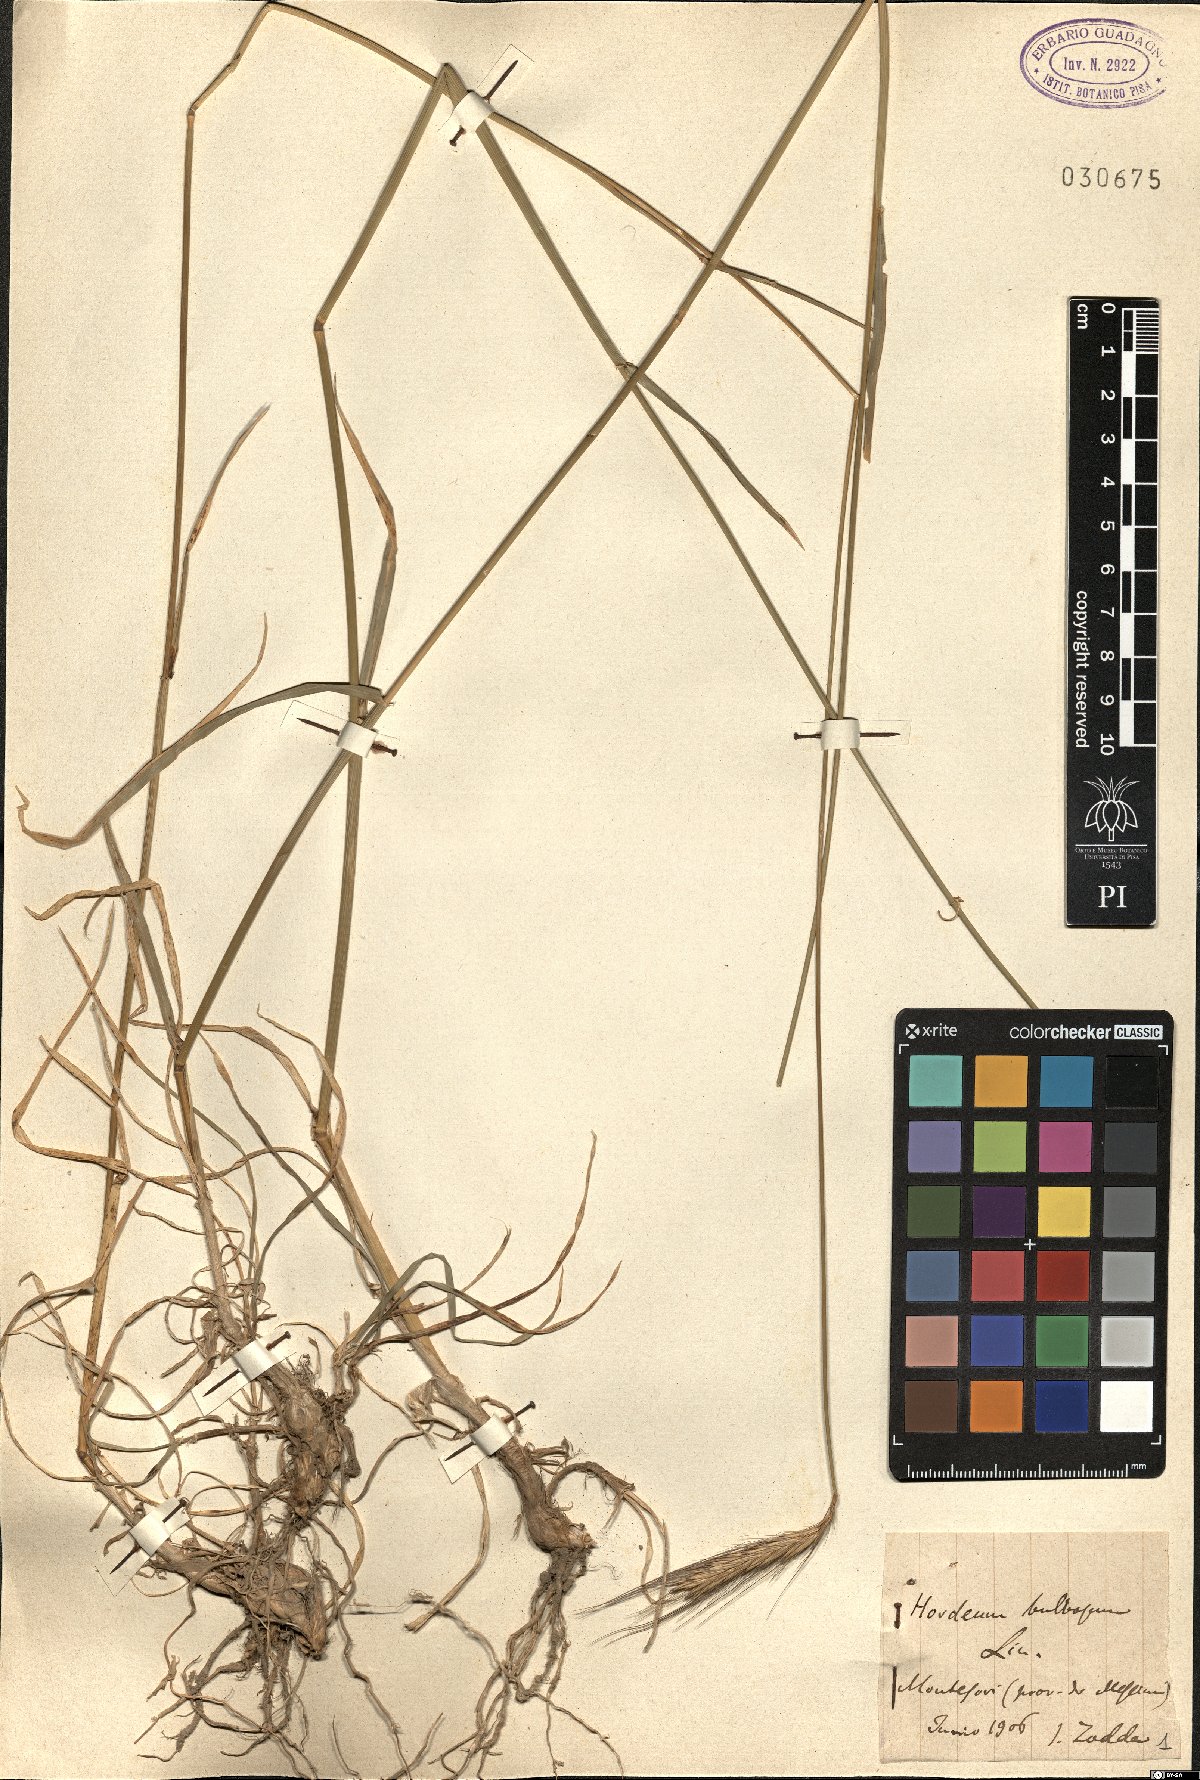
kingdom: Plantae
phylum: Tracheophyta
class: Liliopsida
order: Poales
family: Poaceae
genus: Hordeum
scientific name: Hordeum bulbosum
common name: Bulbous barley
